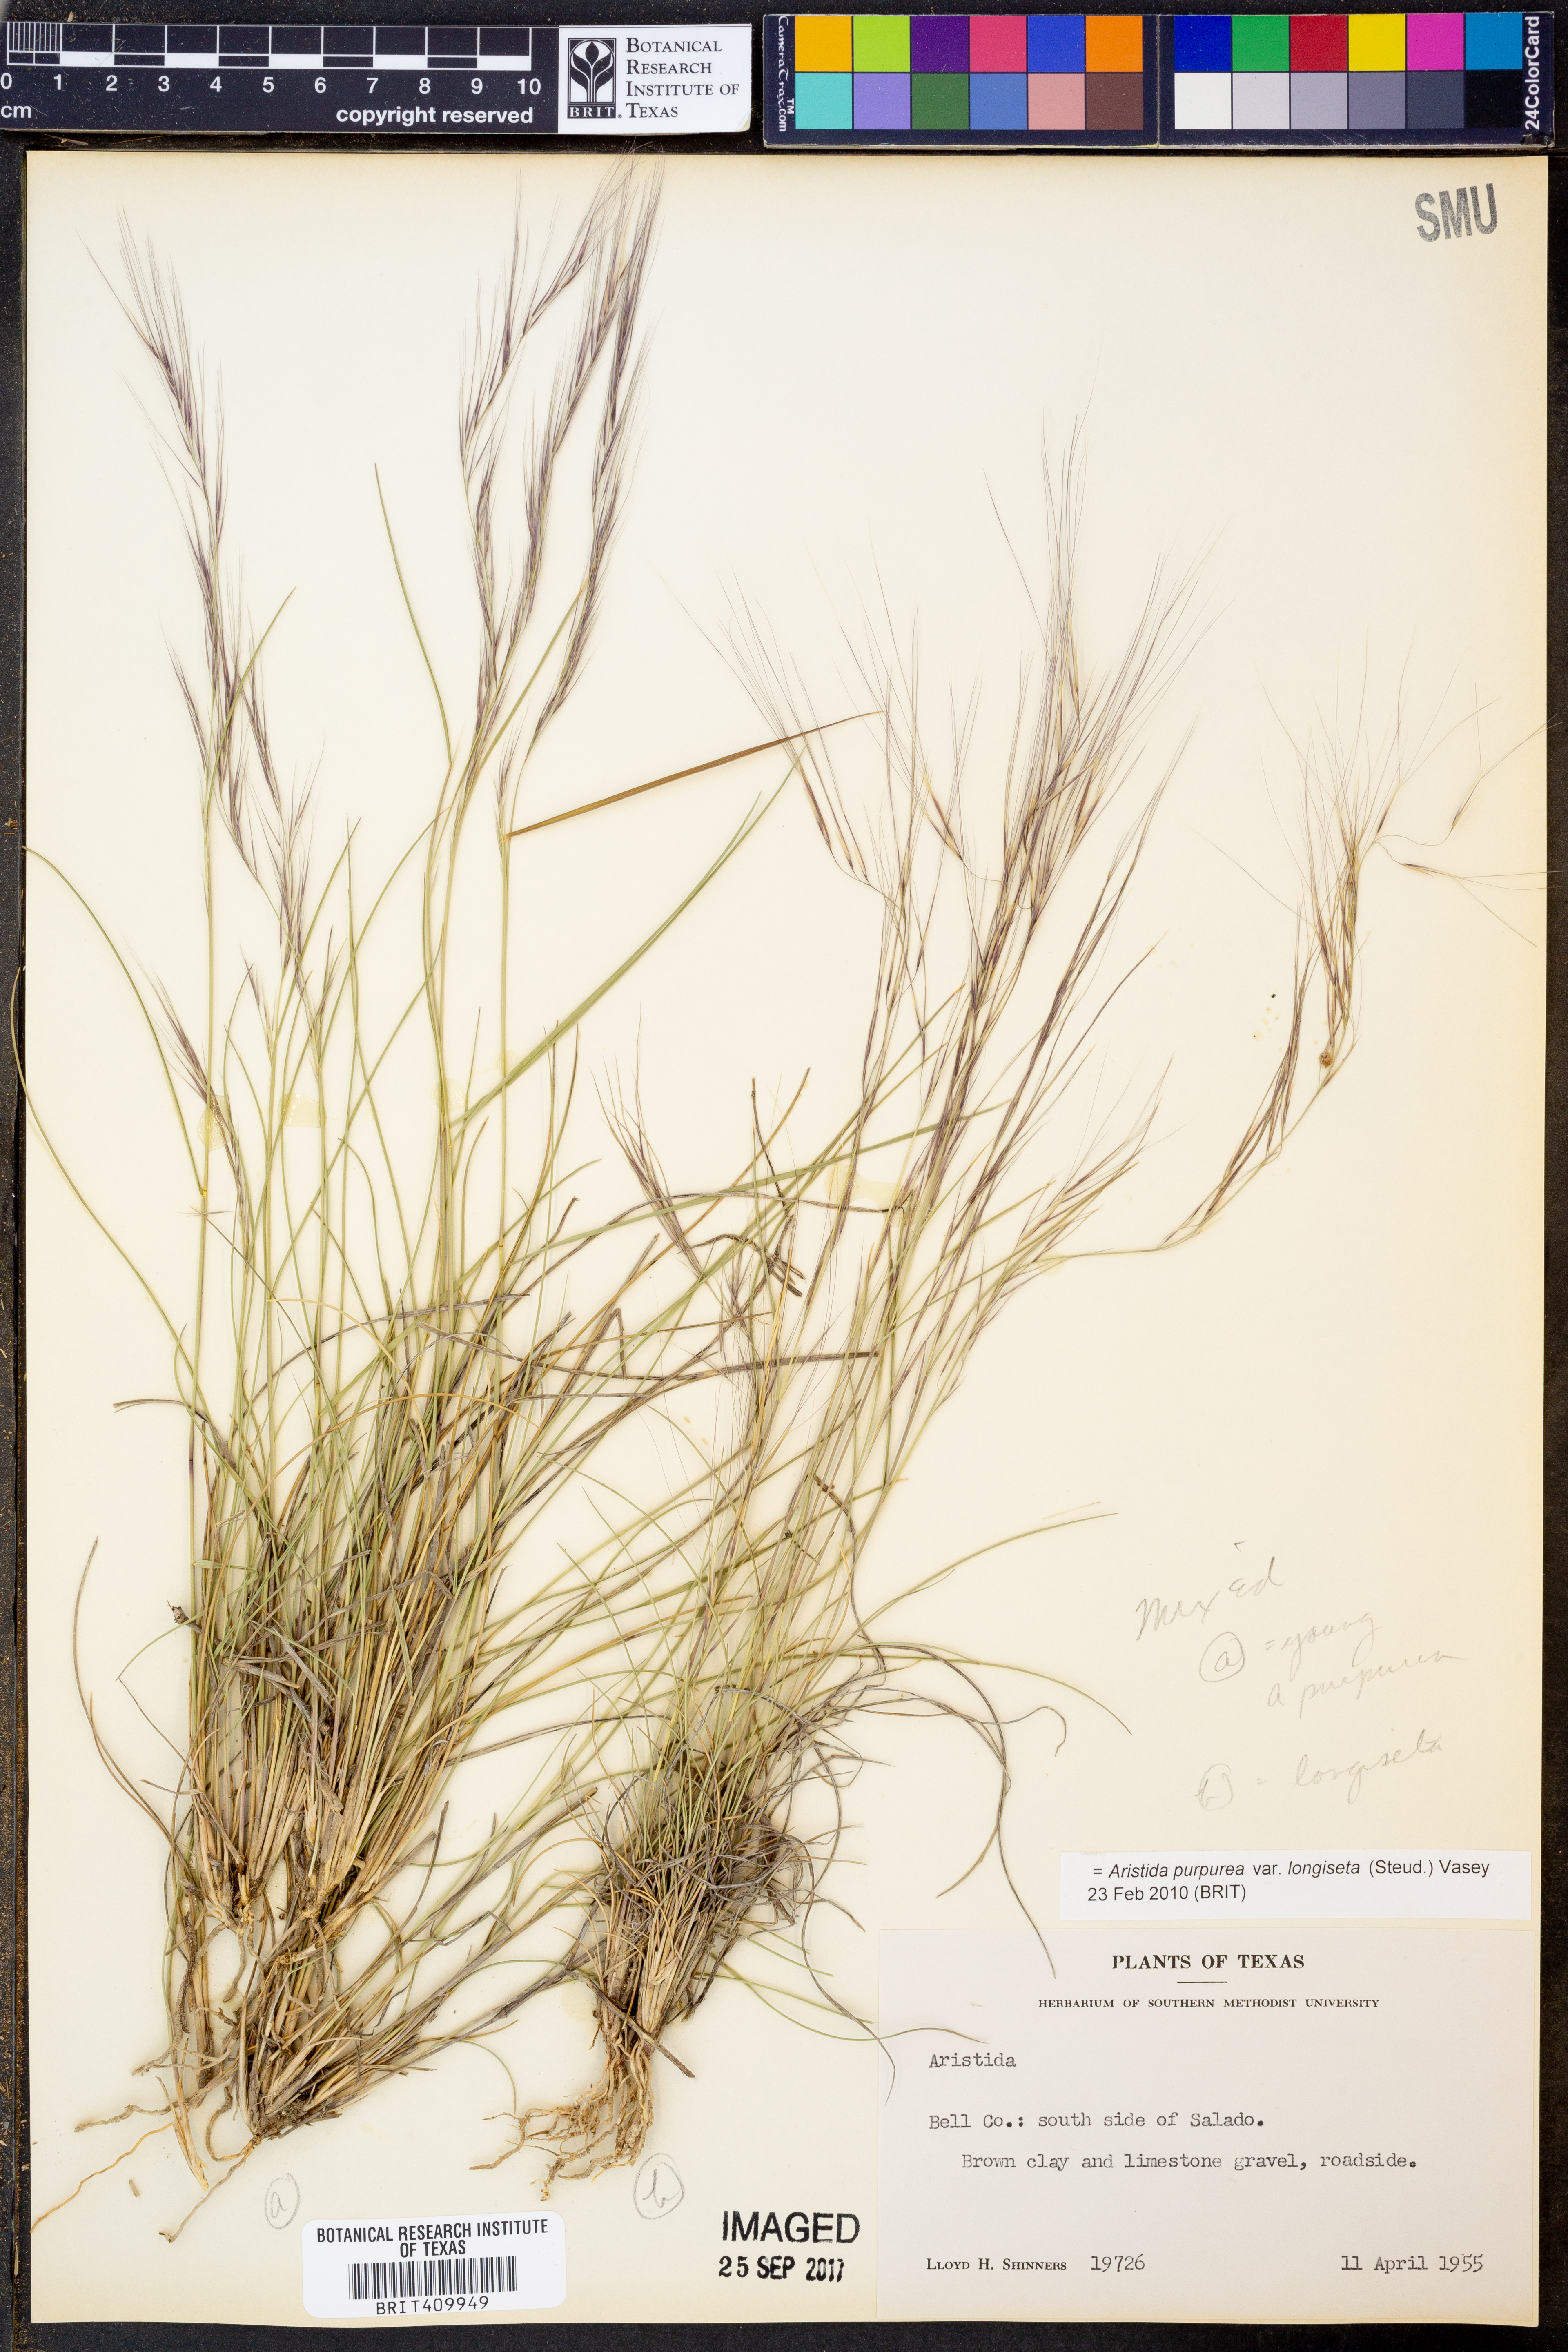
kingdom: Plantae
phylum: Tracheophyta
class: Liliopsida
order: Poales
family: Poaceae
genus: Aristida
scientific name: Aristida longiseta
